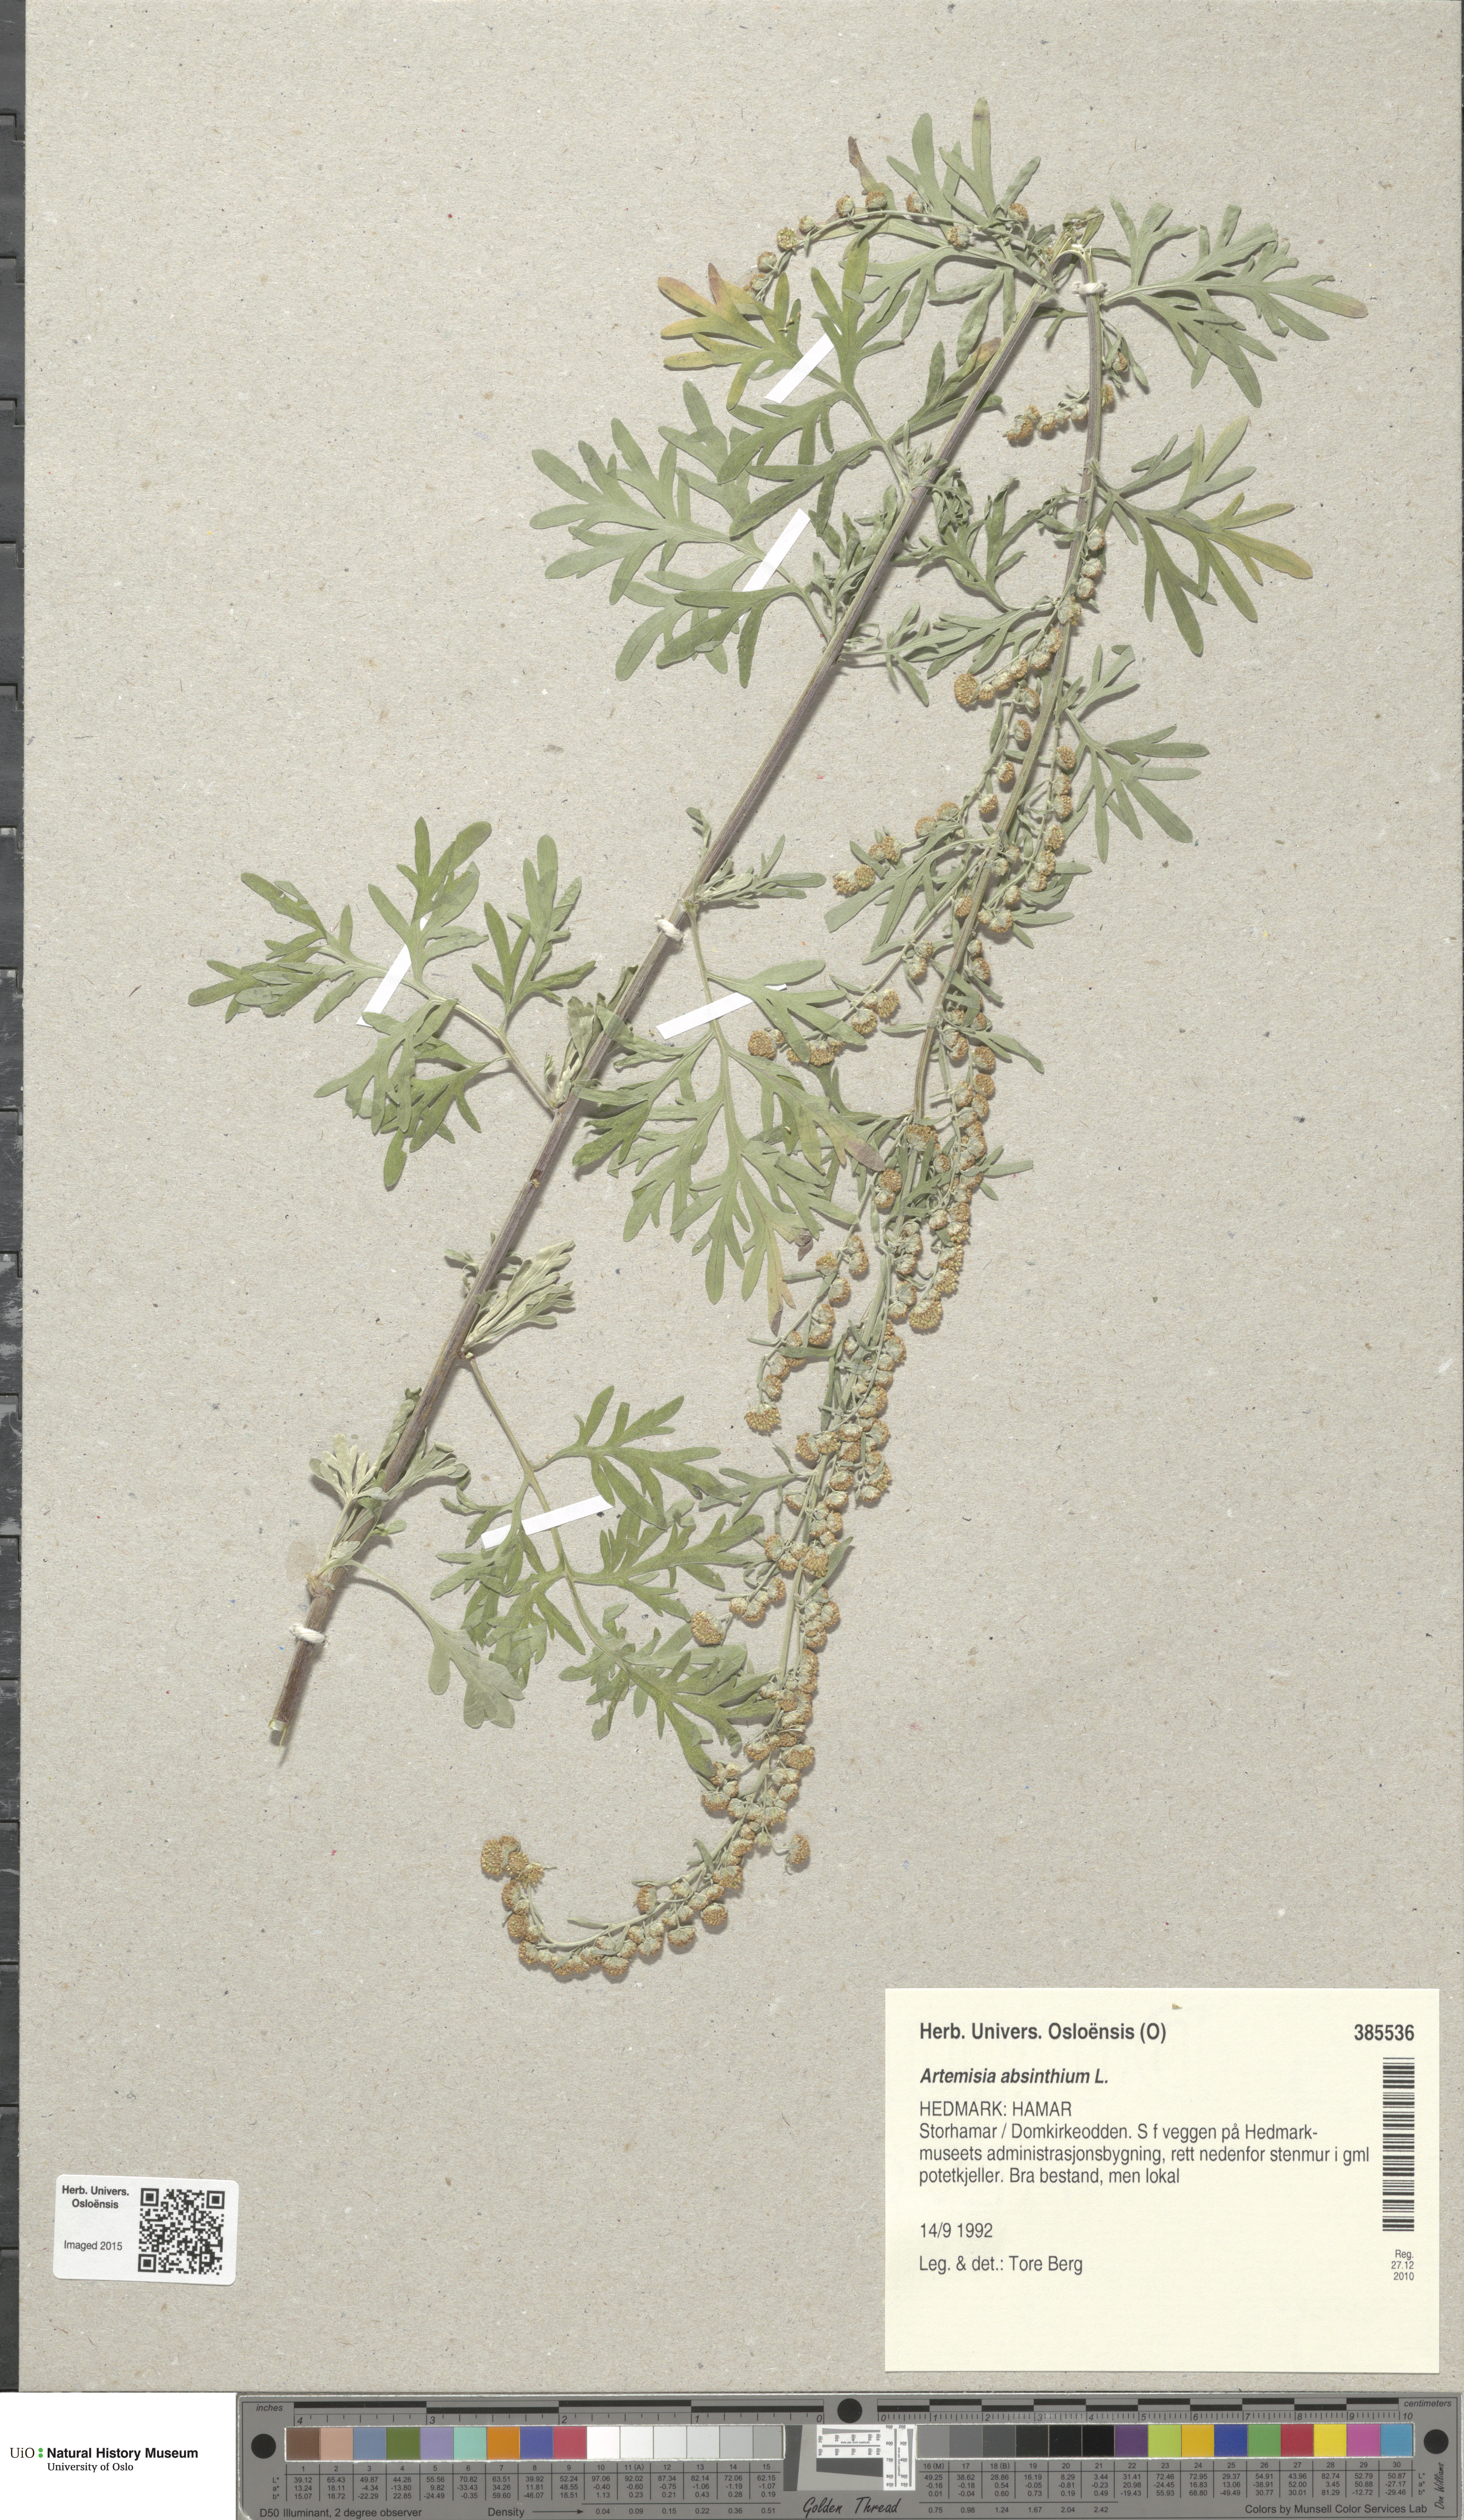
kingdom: Plantae
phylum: Tracheophyta
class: Magnoliopsida
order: Asterales
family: Asteraceae
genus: Artemisia
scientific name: Artemisia absinthium
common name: Wormwood
